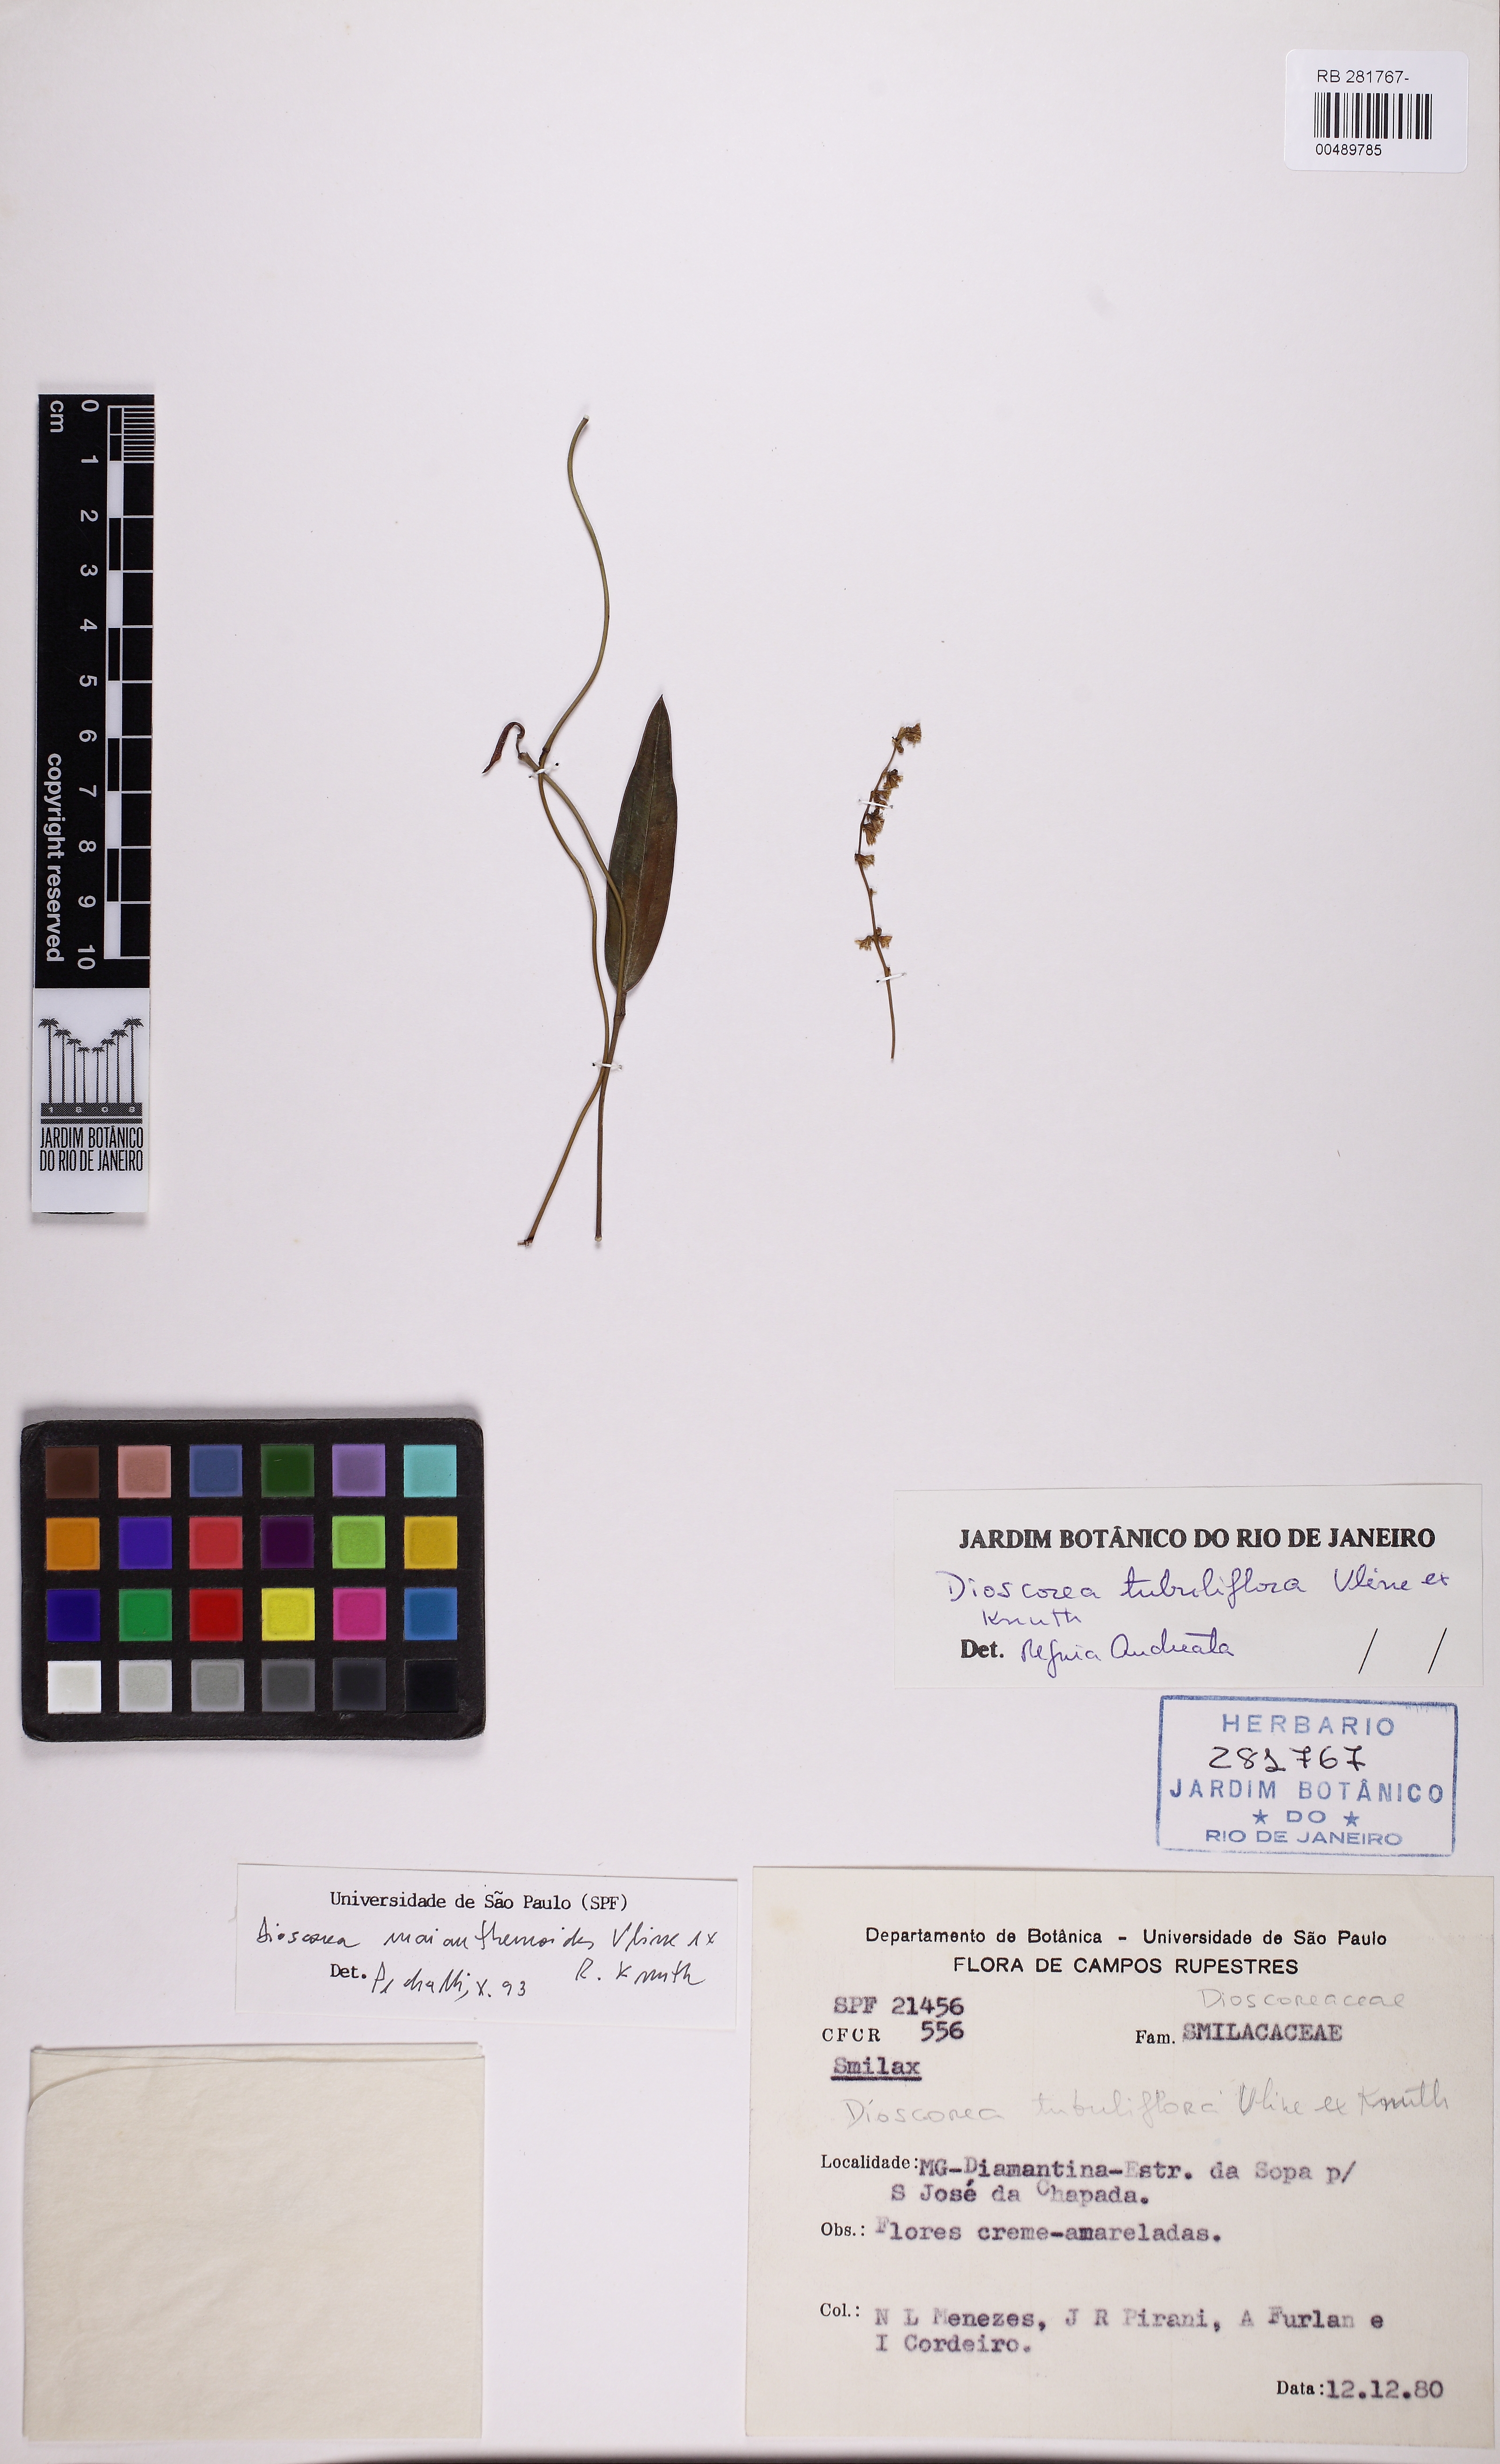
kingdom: Plantae
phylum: Tracheophyta
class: Liliopsida
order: Dioscoreales
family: Dioscoreaceae
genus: Dioscorea
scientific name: Dioscorea tubuliflora
